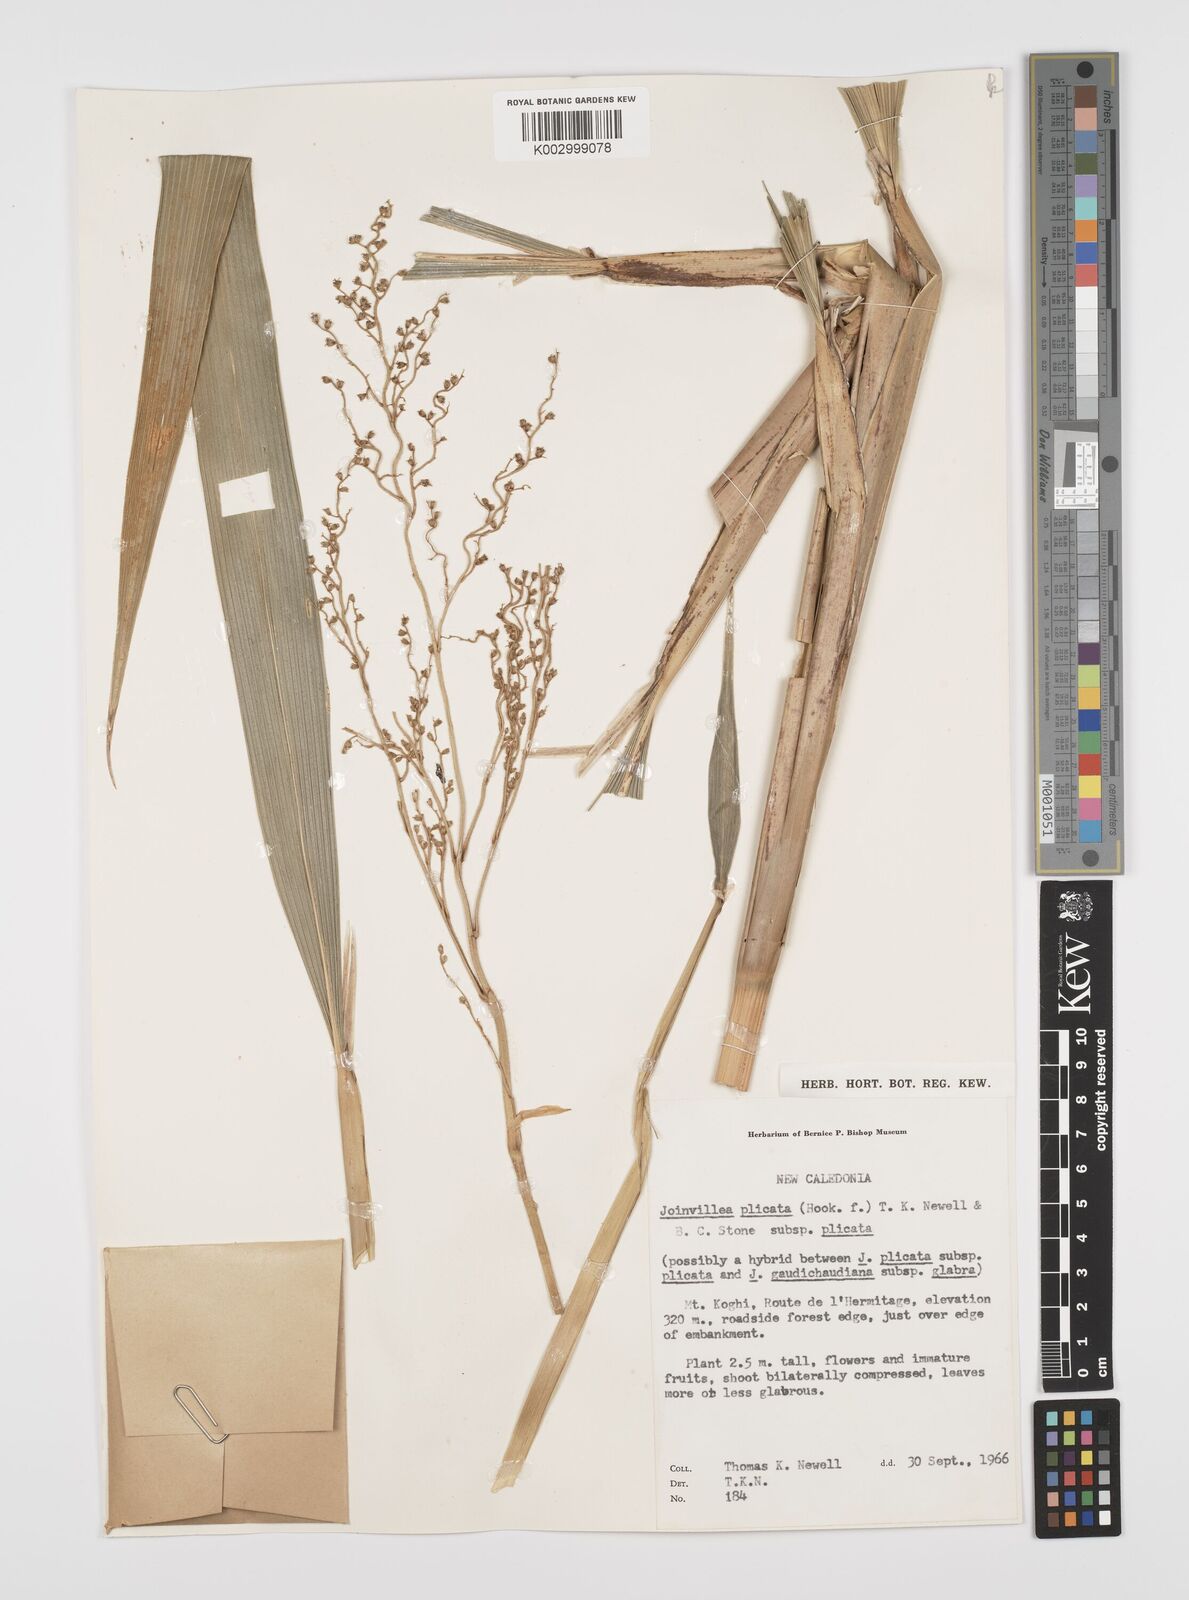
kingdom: Plantae
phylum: Tracheophyta
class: Liliopsida
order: Poales
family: Joinvilleaceae
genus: Joinvillea
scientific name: Joinvillea plicata
